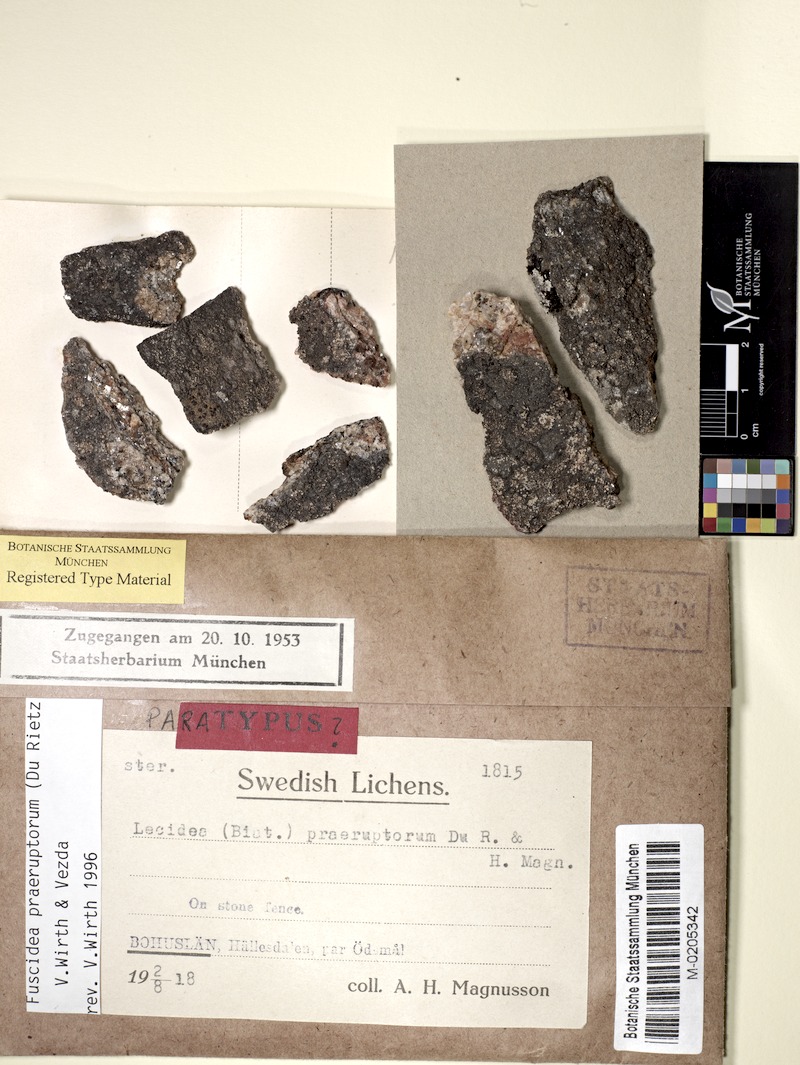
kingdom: Fungi
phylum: Ascomycota
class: Lecanoromycetes
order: Umbilicariales
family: Fuscideaceae
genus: Fuscidea
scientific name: Fuscidea praeruptorum
